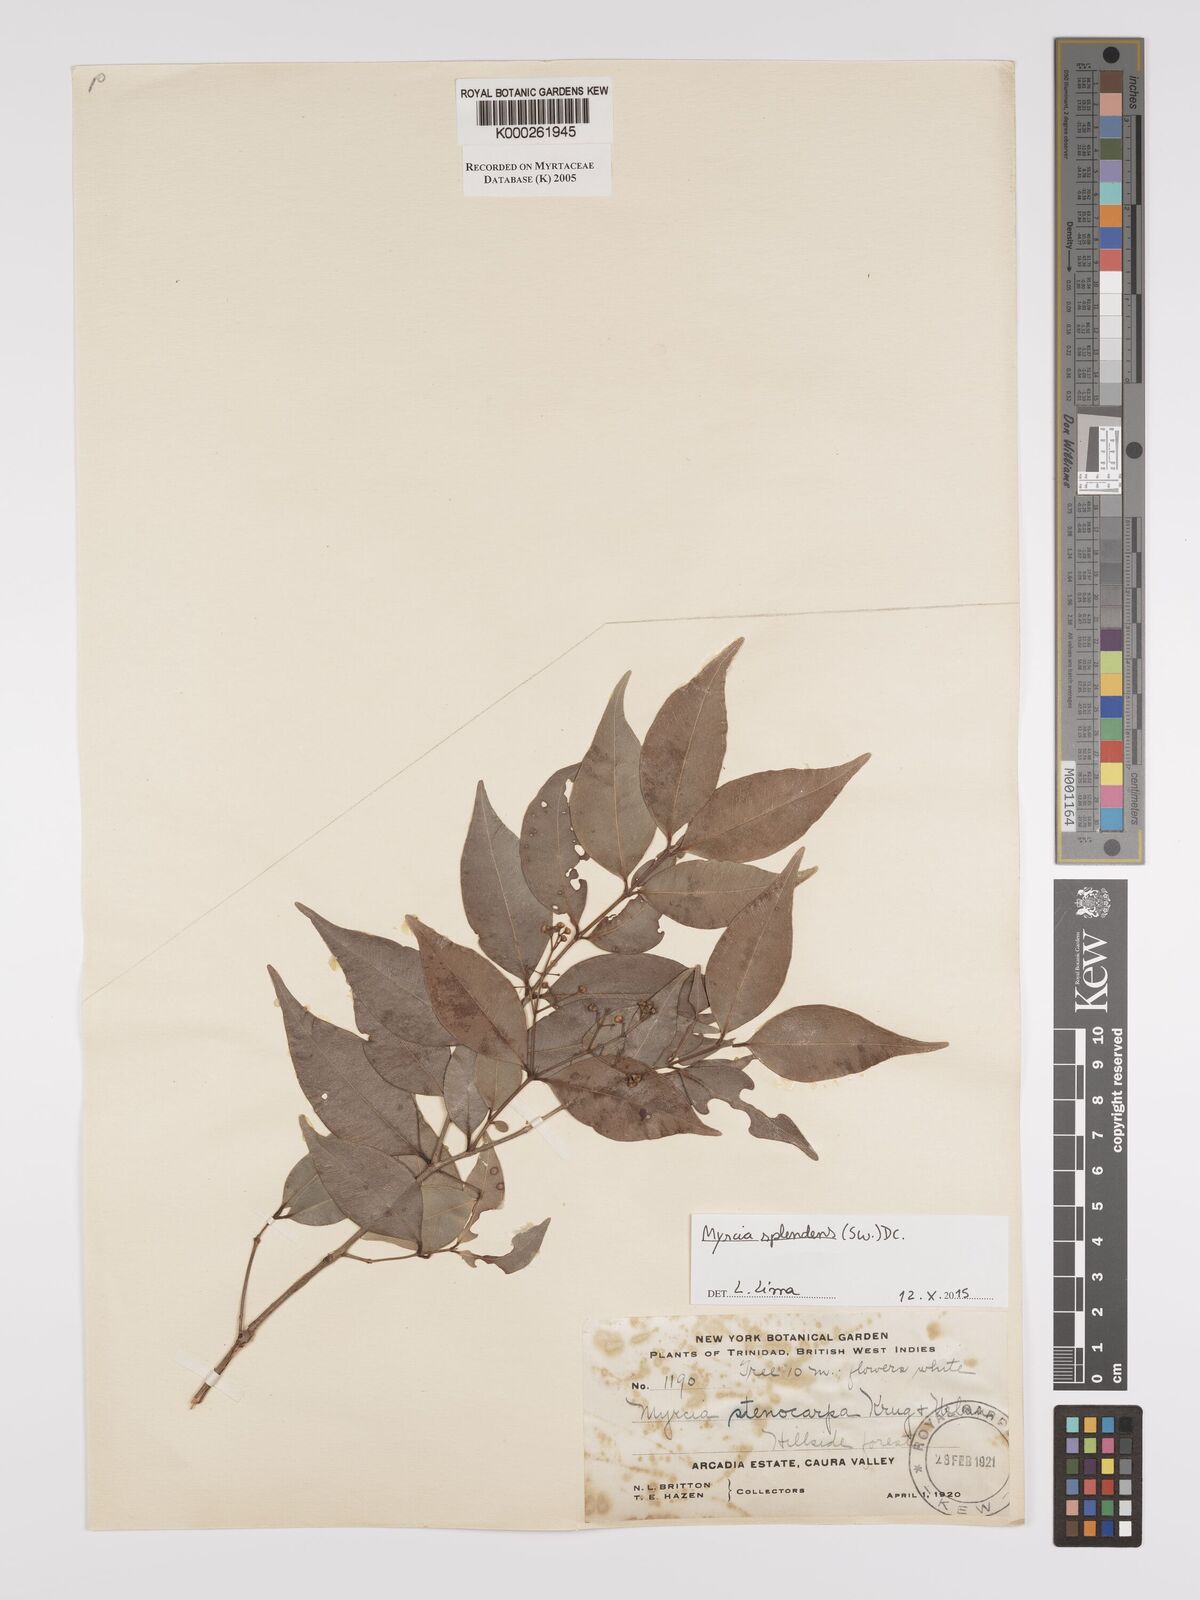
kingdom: Plantae
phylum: Tracheophyta
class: Magnoliopsida
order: Myrtales
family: Myrtaceae
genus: Myrcia
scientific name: Myrcia stenocarpa
